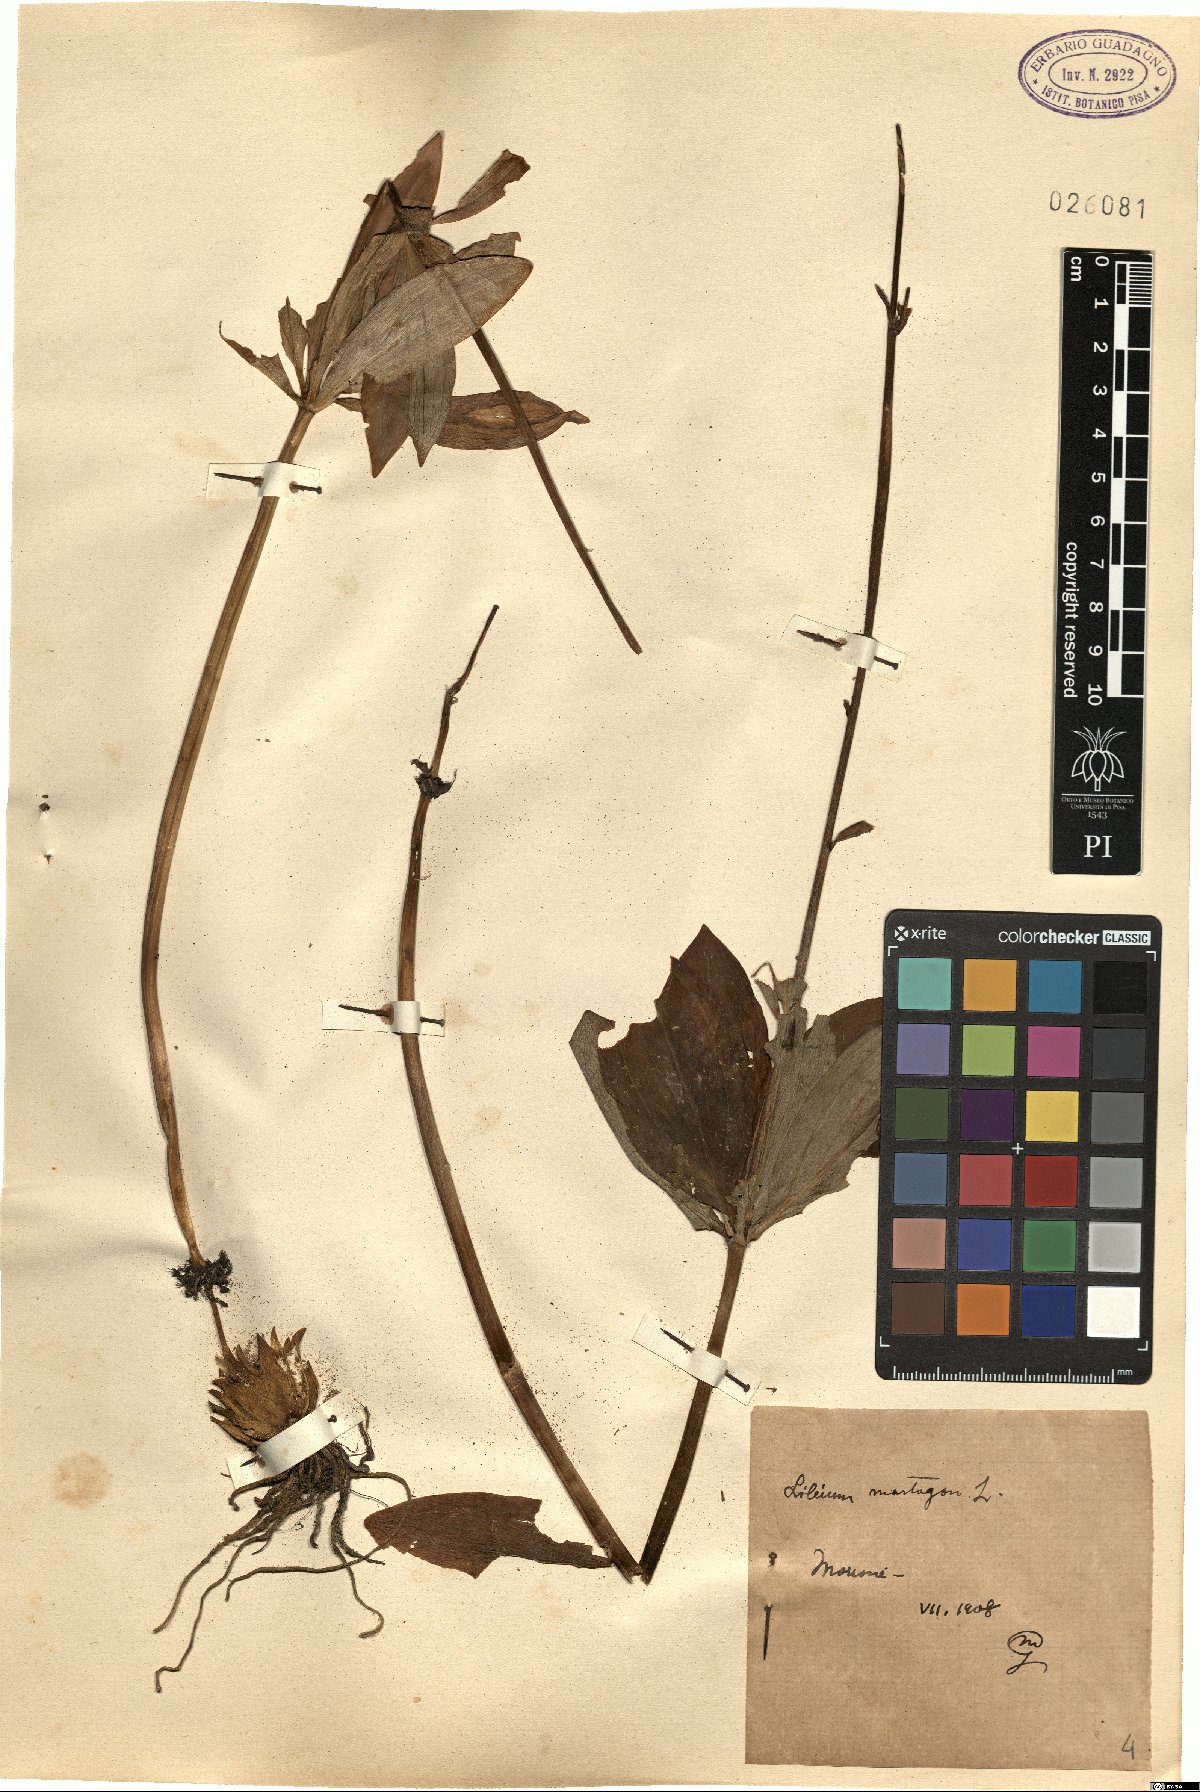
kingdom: Plantae
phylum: Tracheophyta
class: Liliopsida
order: Liliales
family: Liliaceae
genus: Lilium
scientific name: Lilium martagon
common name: Martagon lily
